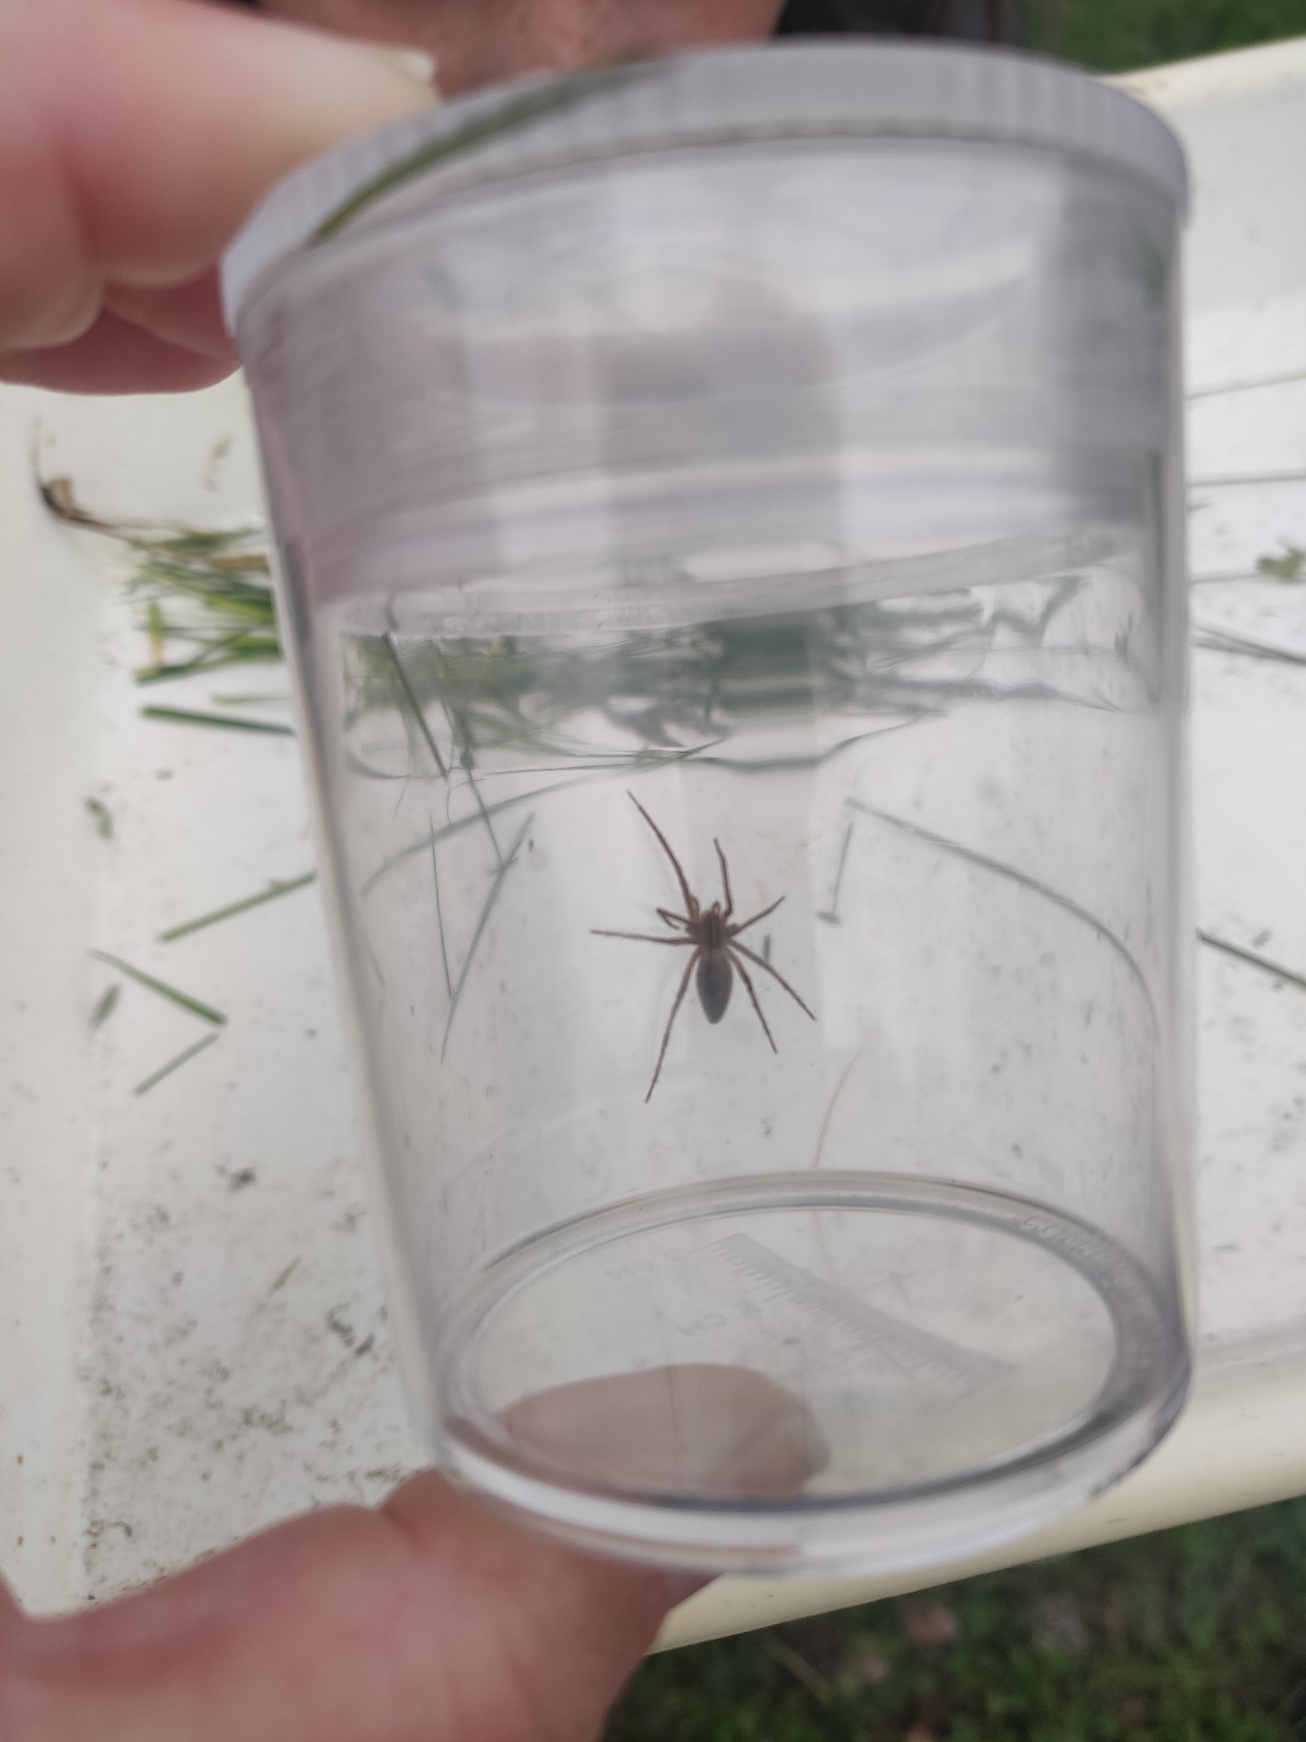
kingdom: Animalia
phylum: Arthropoda
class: Arachnida
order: Araneae
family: Pisauridae
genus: Pisaura
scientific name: Pisaura mirabilis
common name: Almindelig rovedderkop
